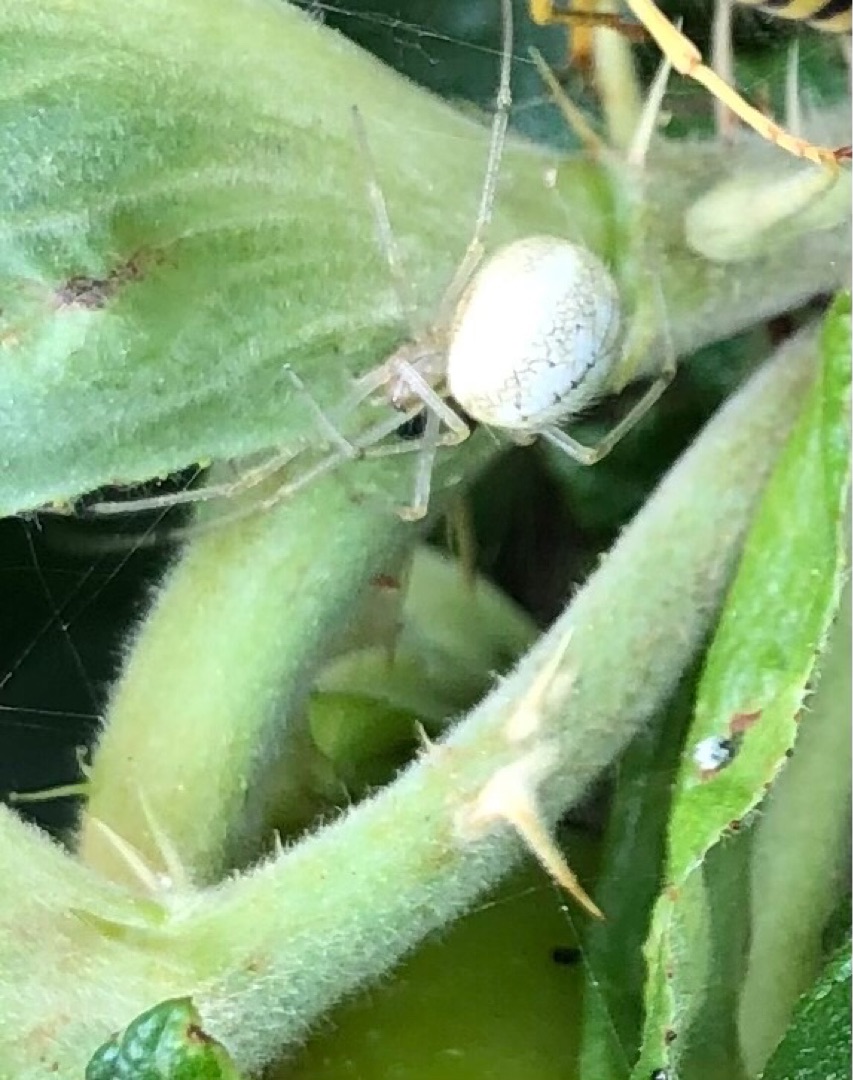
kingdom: Animalia
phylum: Arthropoda
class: Arachnida
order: Araneae
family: Theridiidae
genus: Enoplognatha
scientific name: Enoplognatha
